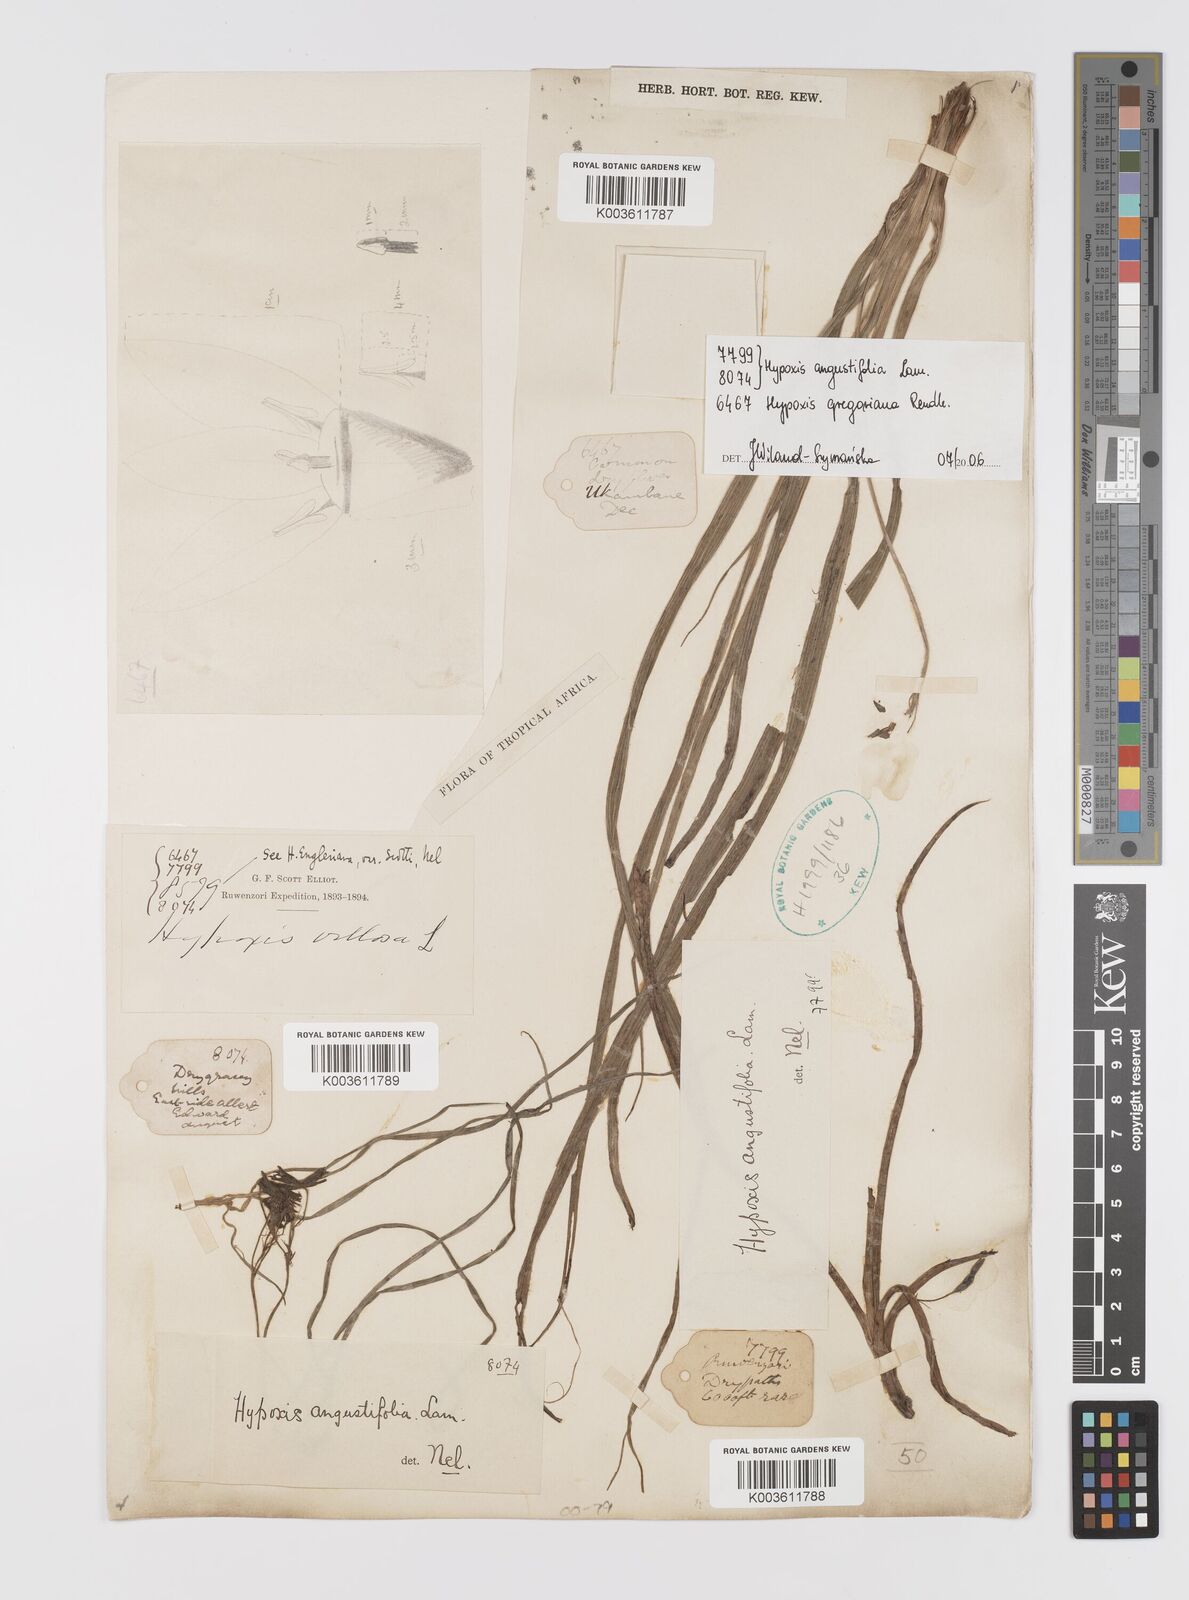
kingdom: Plantae
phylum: Tracheophyta
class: Liliopsida
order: Asparagales
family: Hypoxidaceae
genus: Hypoxis
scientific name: Hypoxis angustifolia
